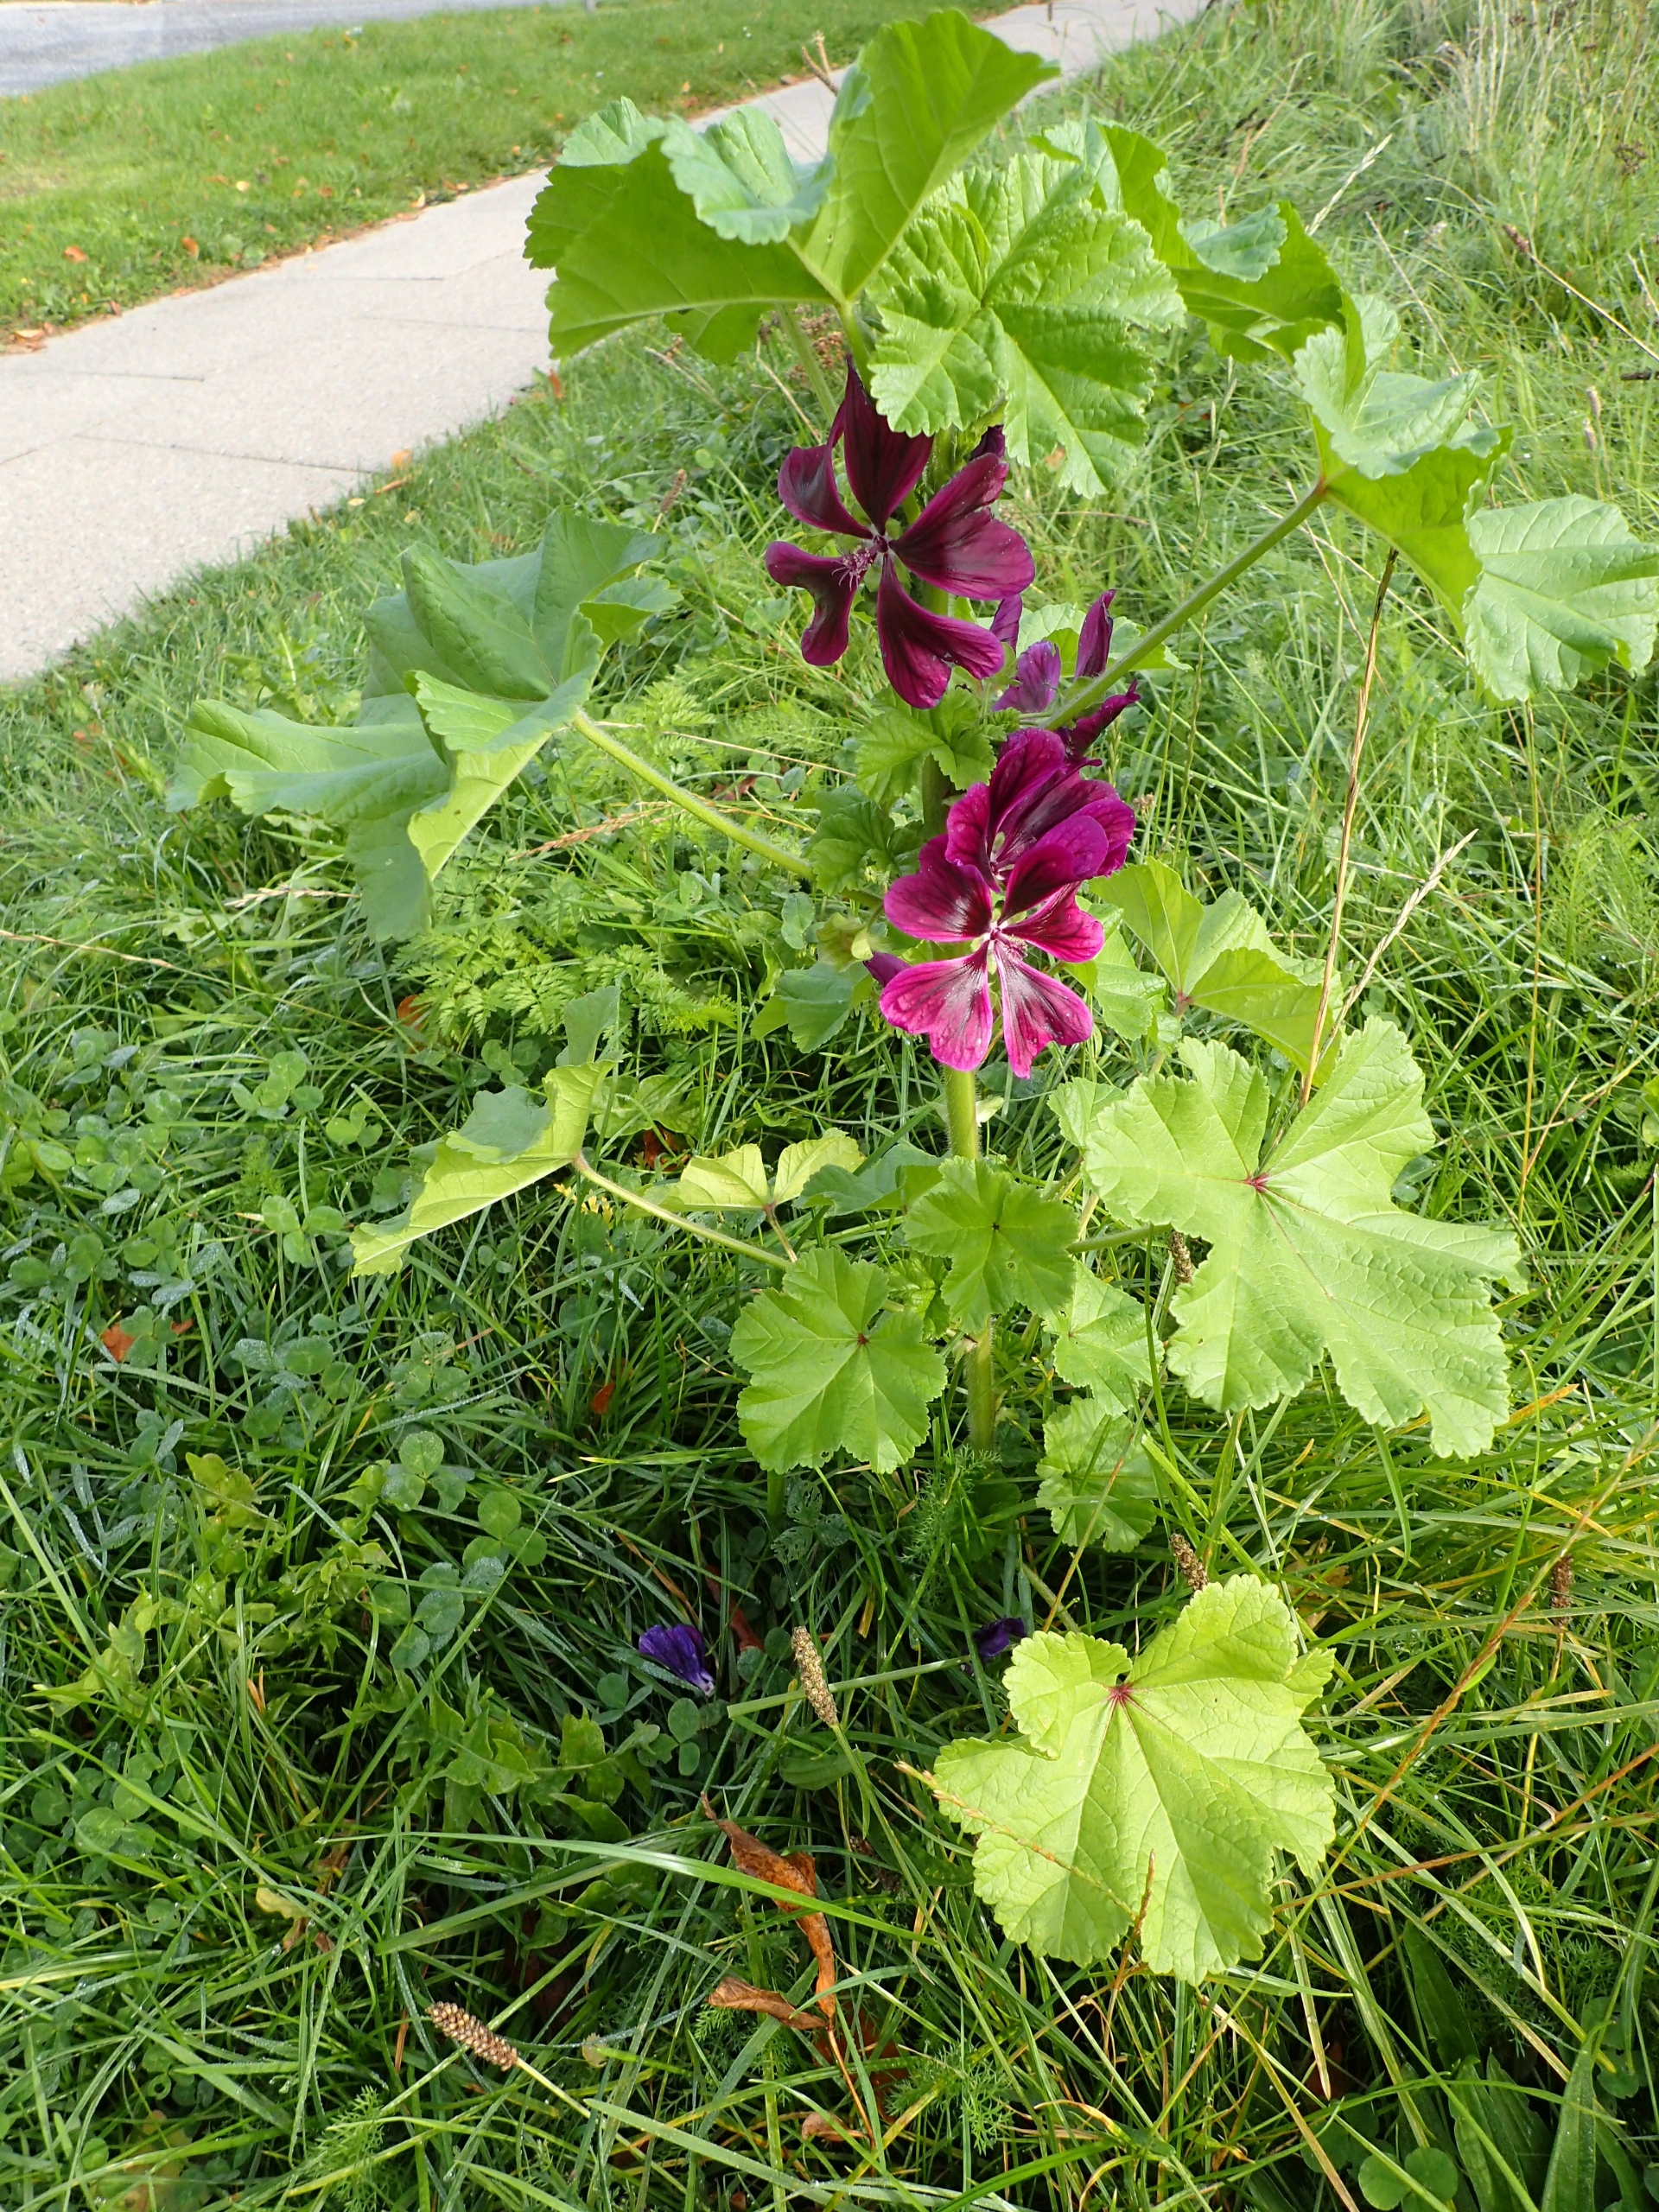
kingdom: Plantae
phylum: Tracheophyta
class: Magnoliopsida
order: Malvales
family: Malvaceae
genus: Malva
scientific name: Malva sylvestris
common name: Almindelig katost
